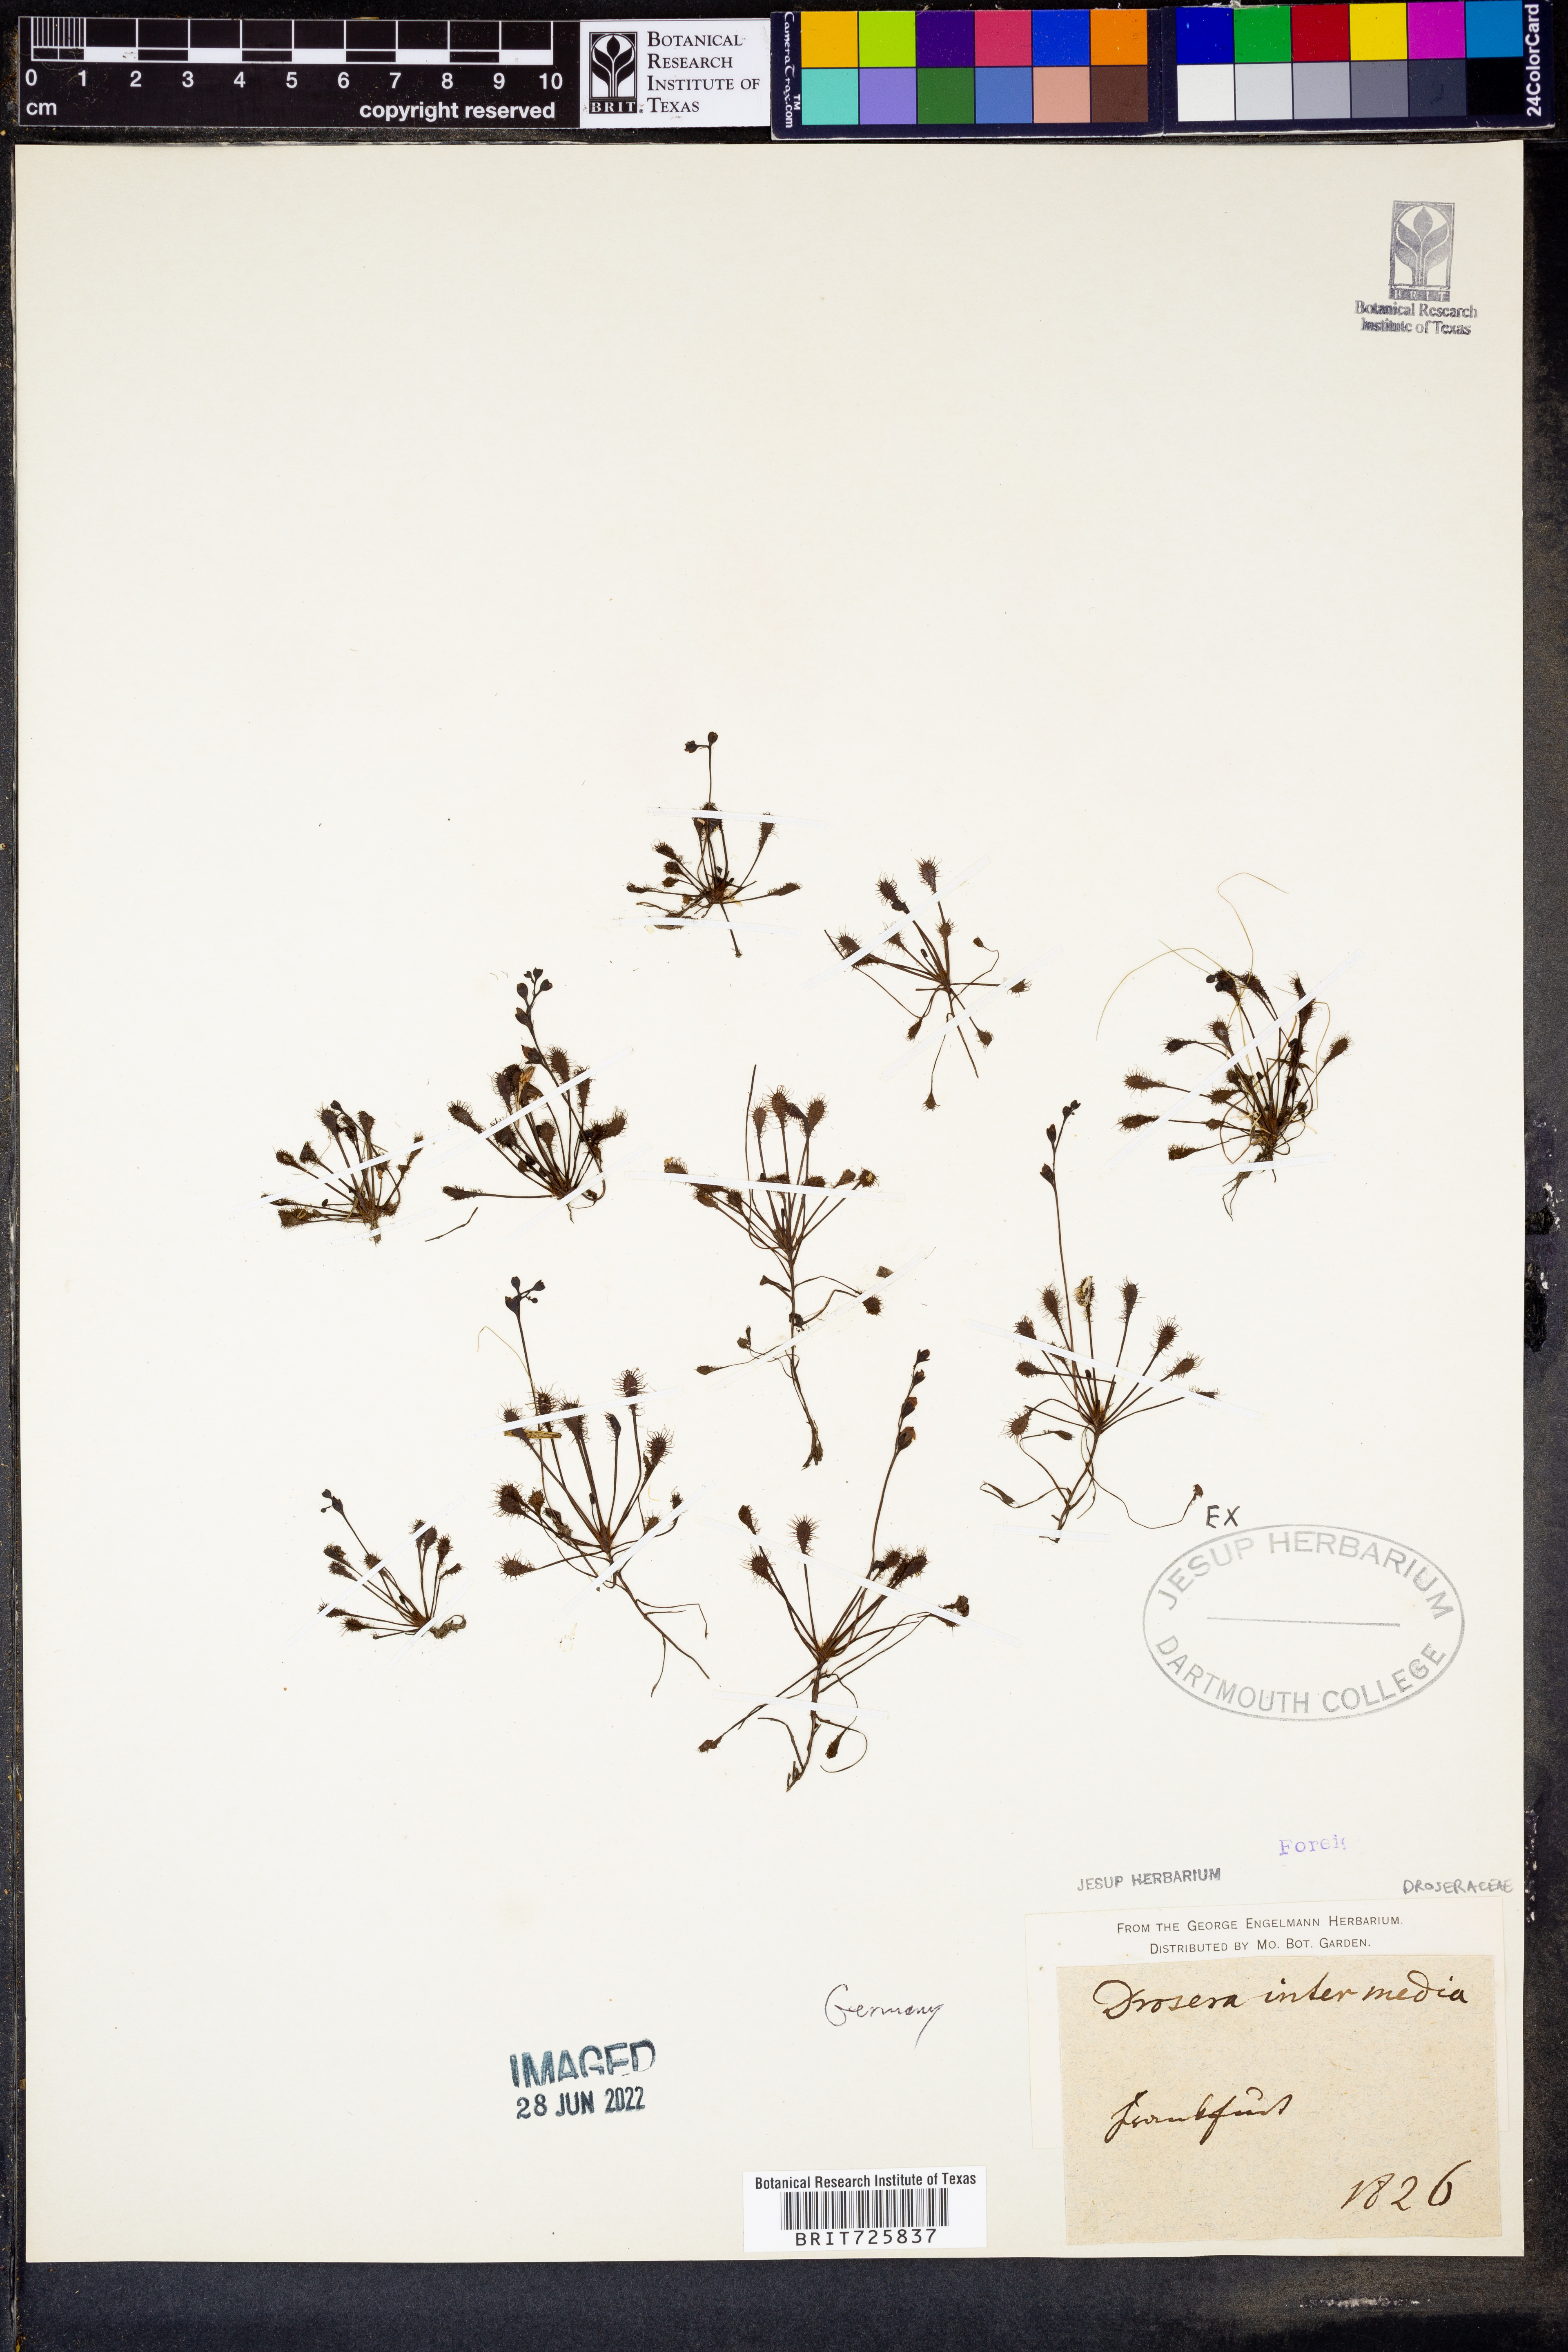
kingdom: Plantae
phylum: Tracheophyta
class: Magnoliopsida
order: Caryophyllales
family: Droseraceae
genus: Drosera
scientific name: Drosera intermedia
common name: Oblong-leaved sundew
